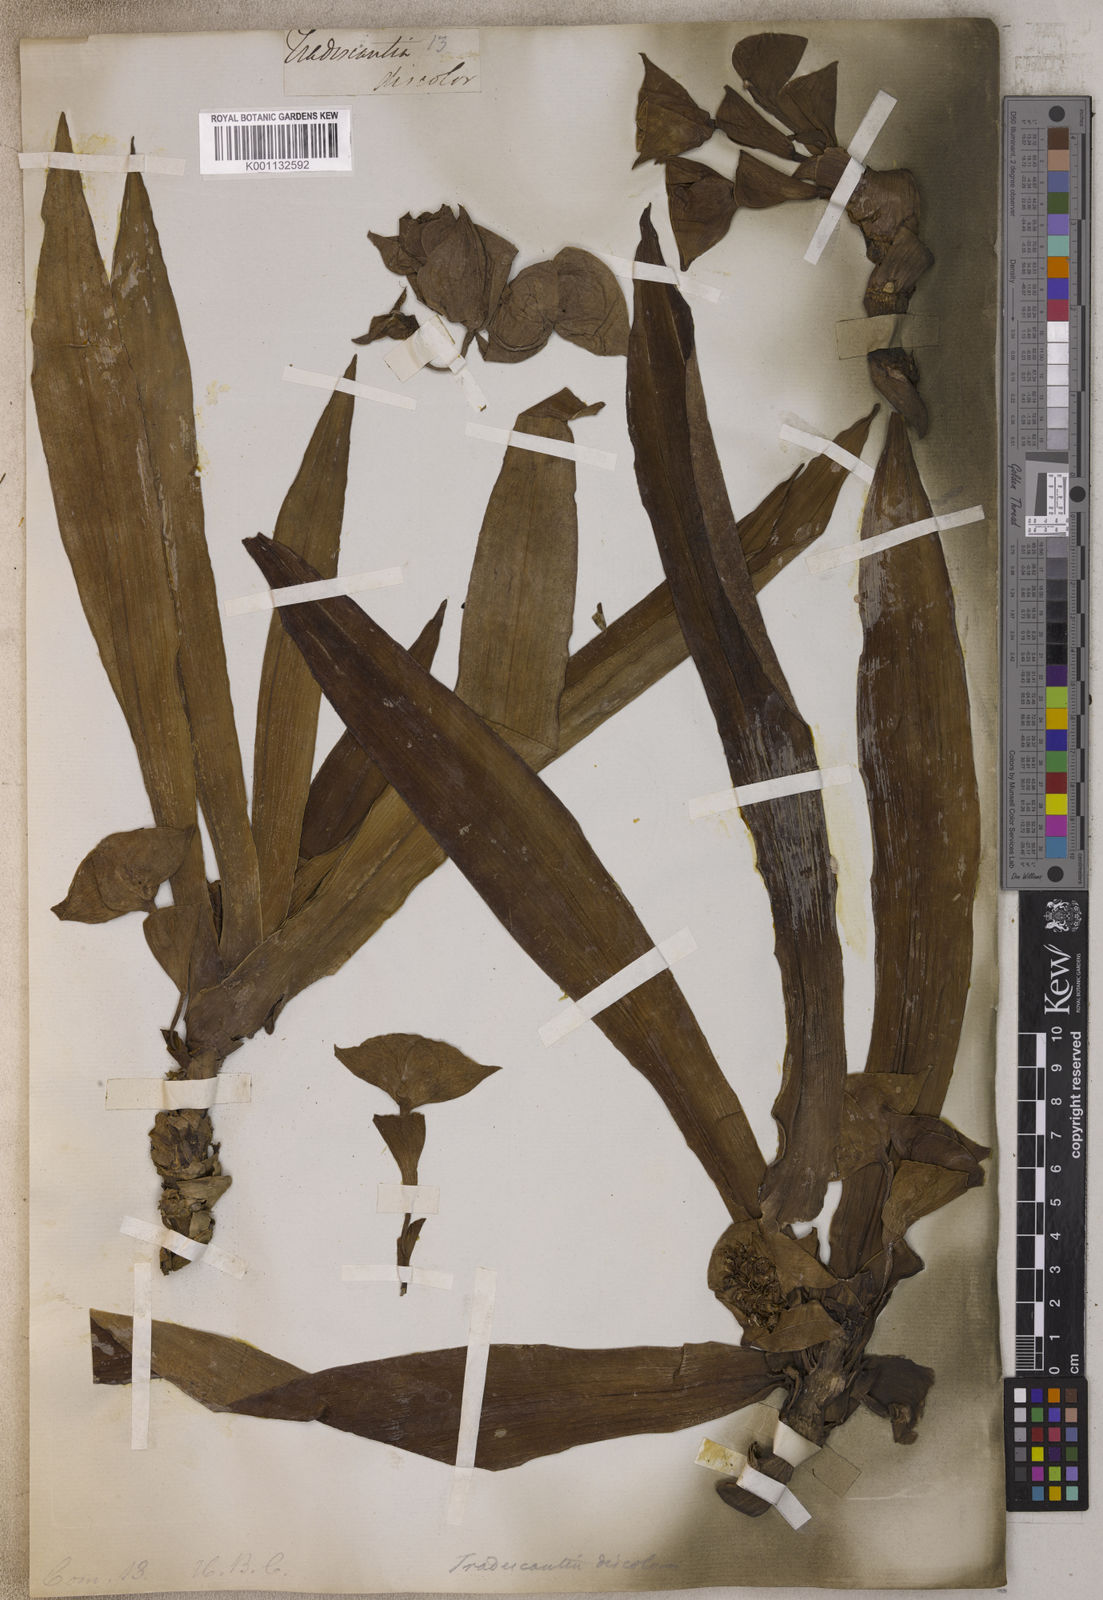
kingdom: Plantae
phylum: Tracheophyta
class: Liliopsida
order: Commelinales
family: Commelinaceae
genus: Tradescantia
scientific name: Tradescantia
